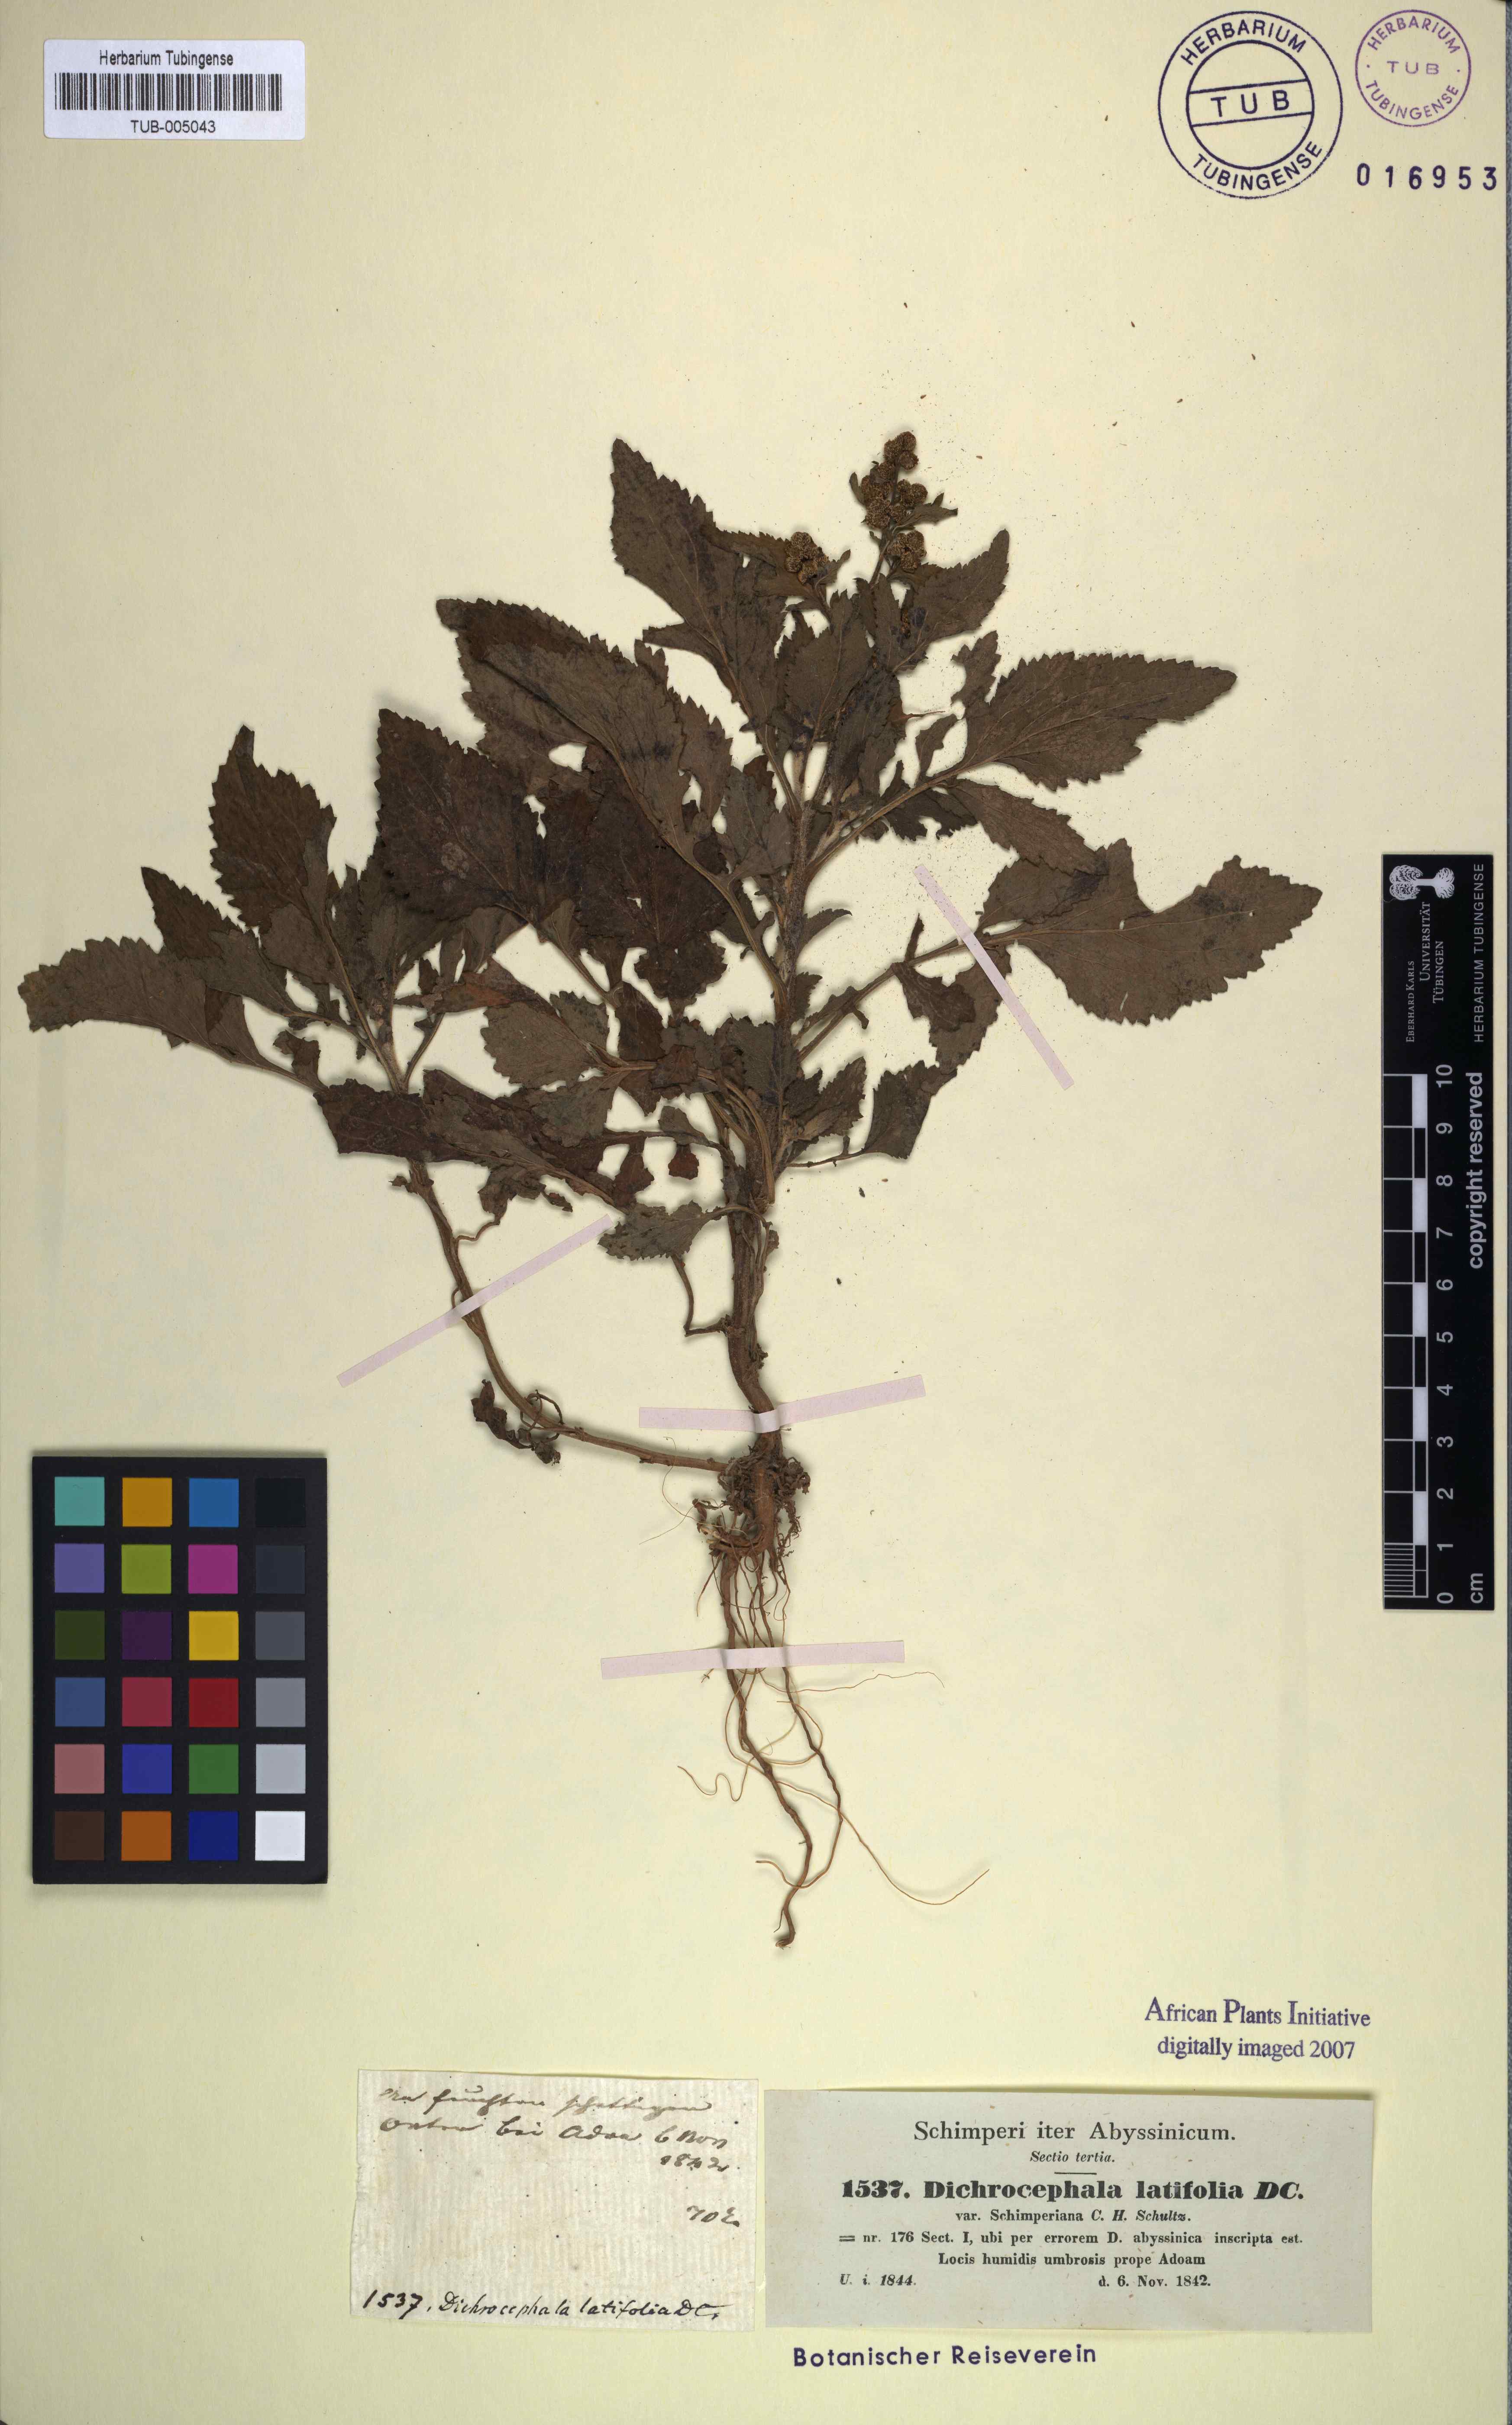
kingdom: Plantae
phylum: Tracheophyta
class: Magnoliopsida
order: Asterales
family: Asteraceae
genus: Dichrocephala
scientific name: Dichrocephala integrifolia
